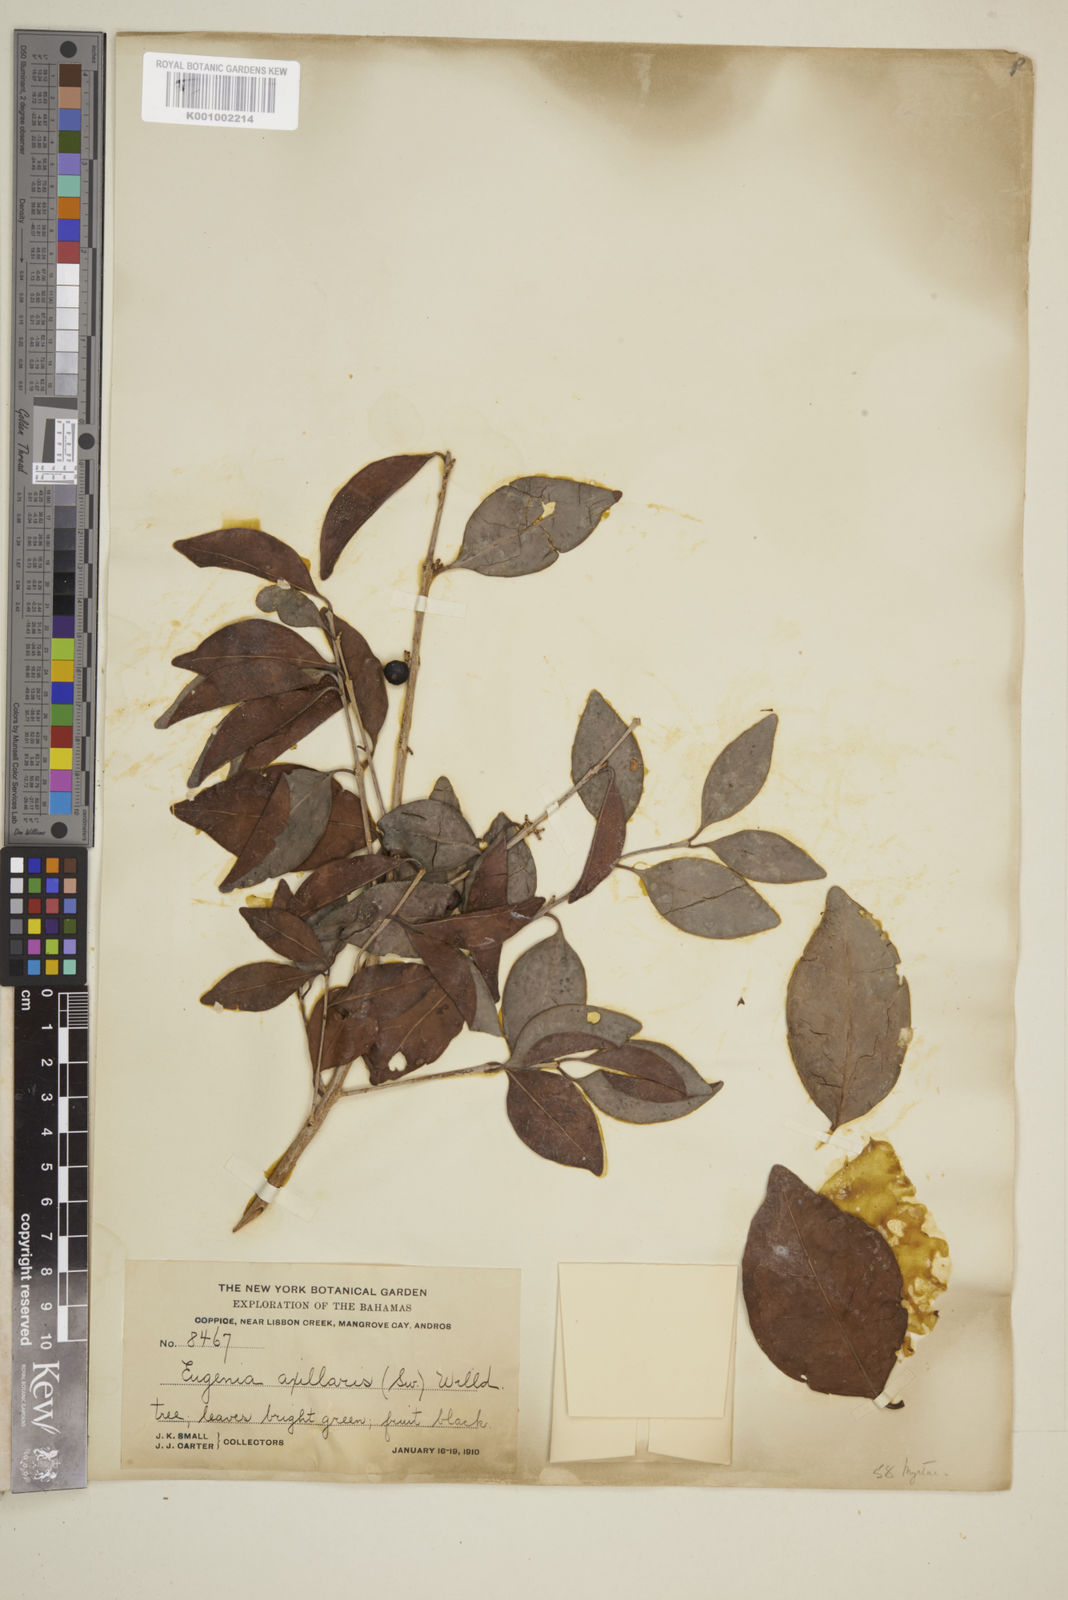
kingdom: Plantae
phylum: Tracheophyta
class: Magnoliopsida
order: Myrtales
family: Myrtaceae
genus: Eugenia
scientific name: Eugenia axillaris
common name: Choaky berry
